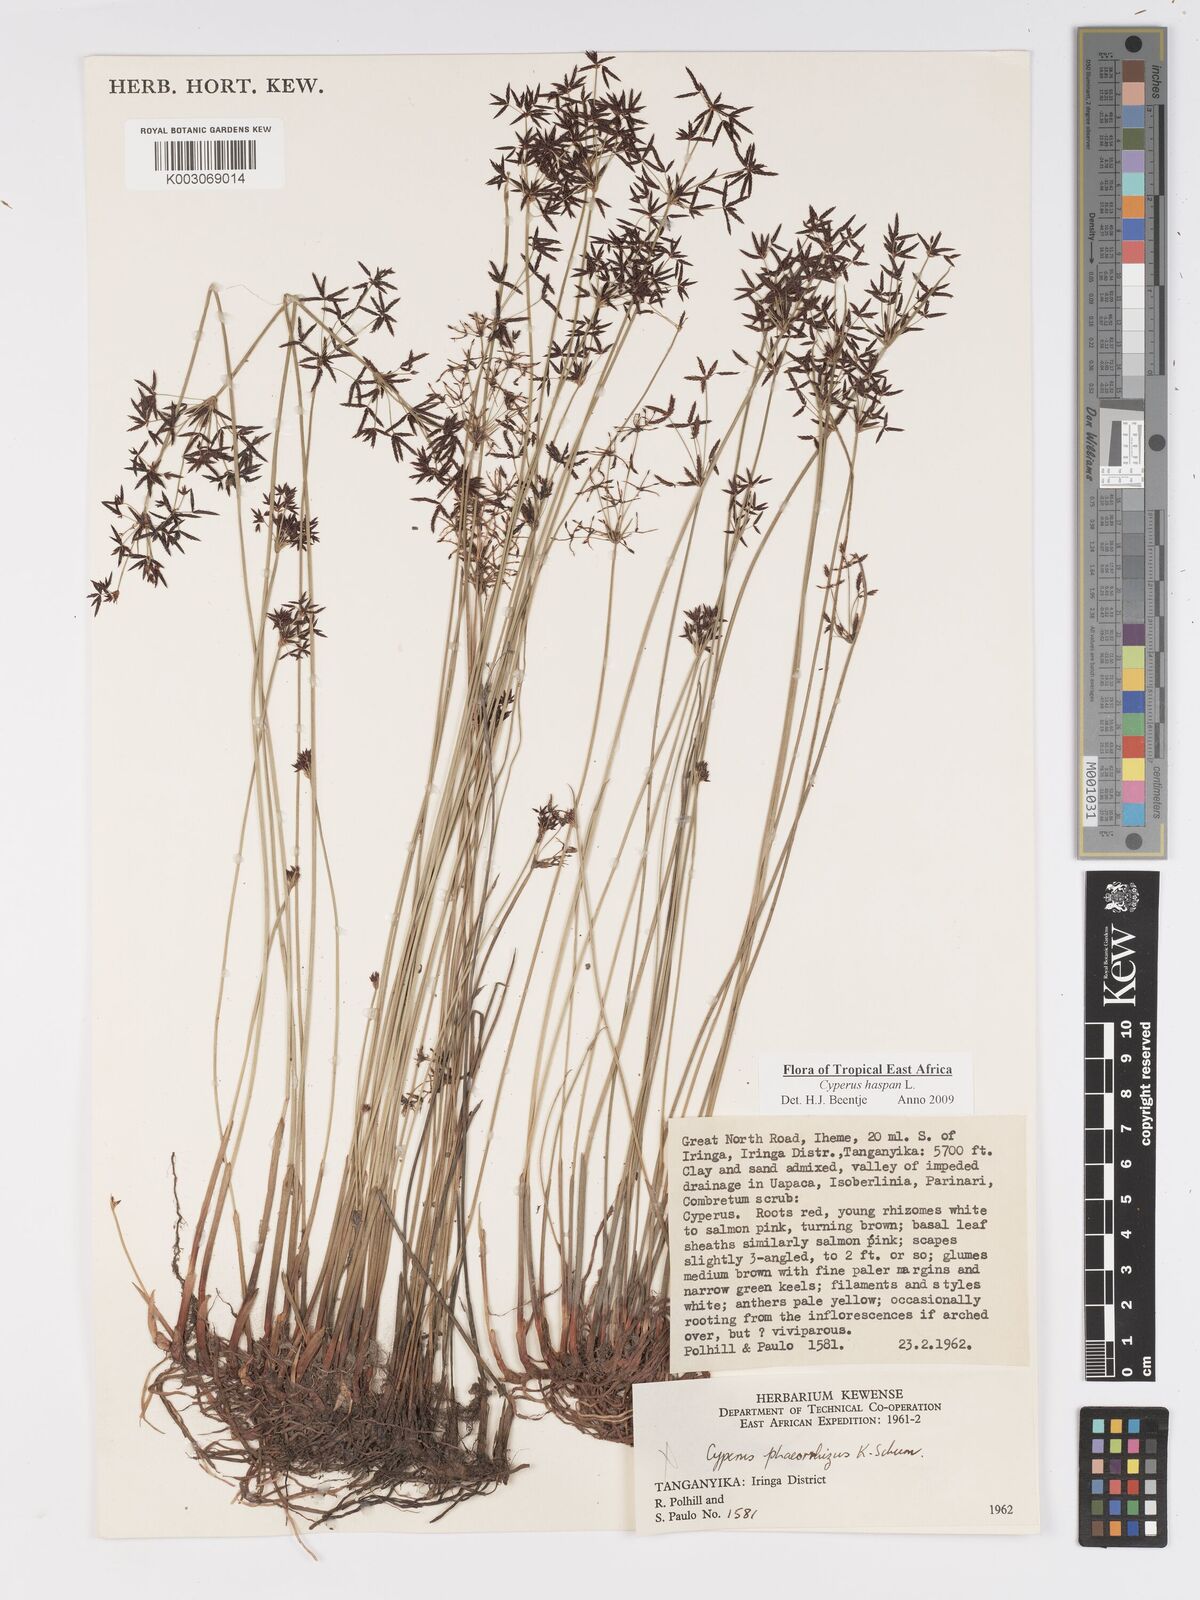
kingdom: Plantae
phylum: Tracheophyta
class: Liliopsida
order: Poales
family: Cyperaceae
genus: Cyperus
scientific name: Cyperus
